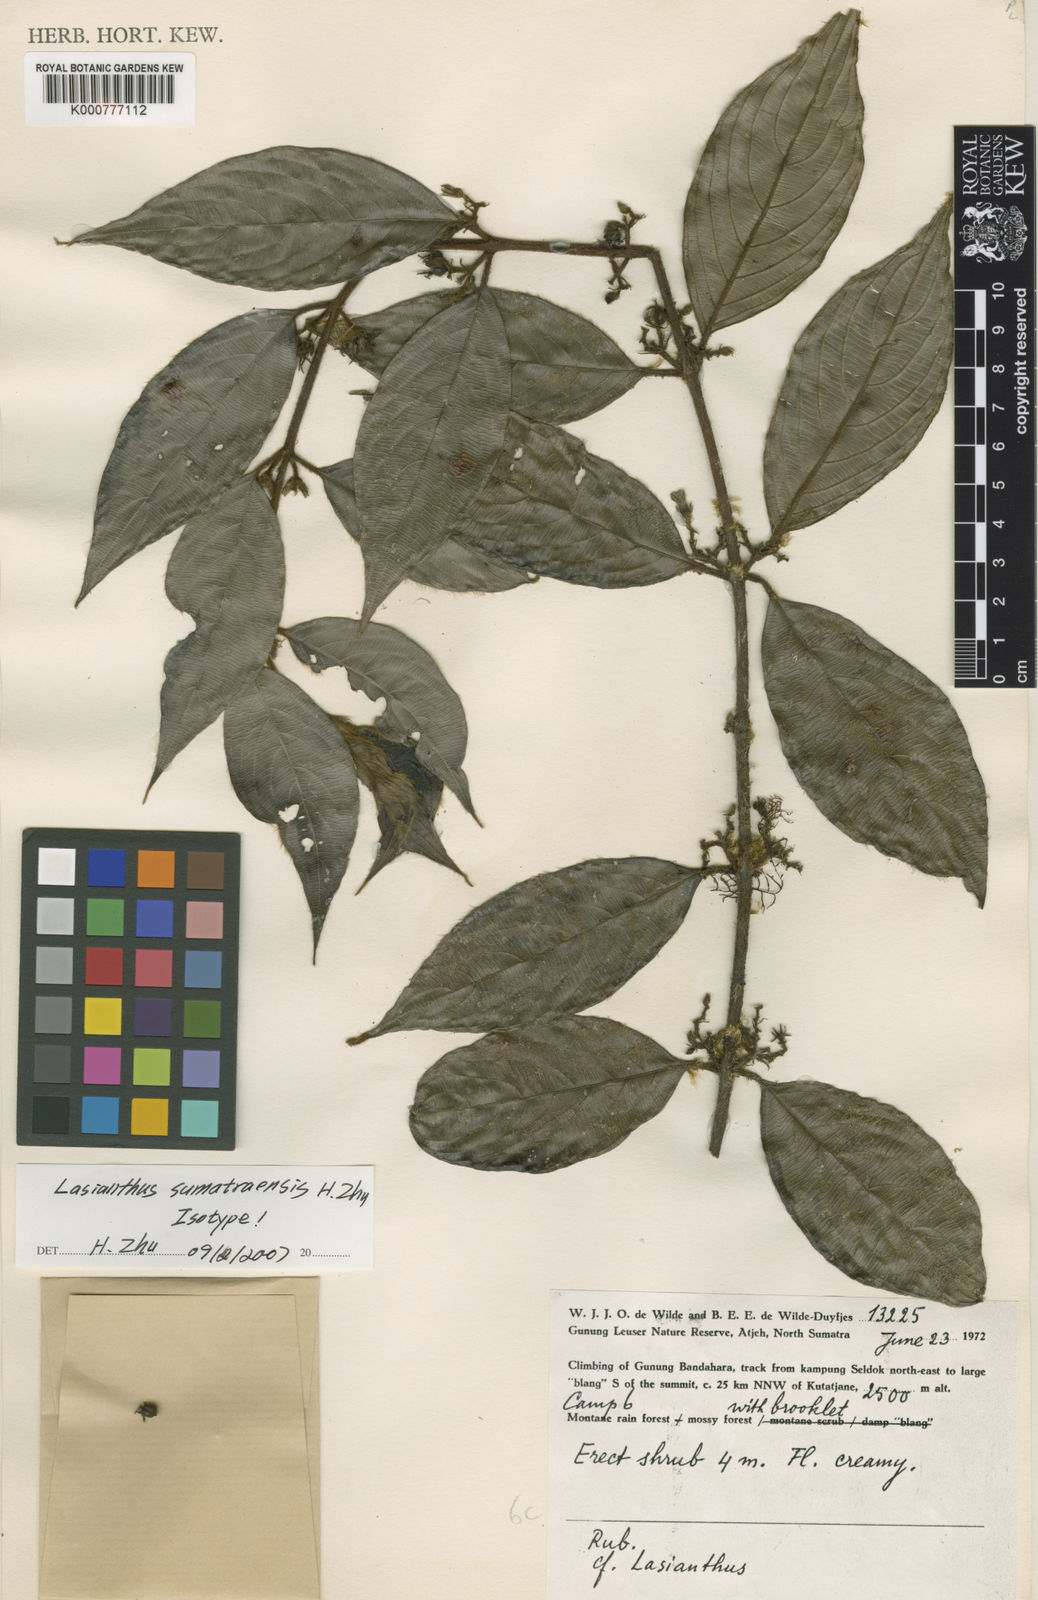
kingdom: Plantae
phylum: Tracheophyta
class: Magnoliopsida
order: Gentianales
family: Rubiaceae
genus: Lasianthus
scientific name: Lasianthus sumatraensis
